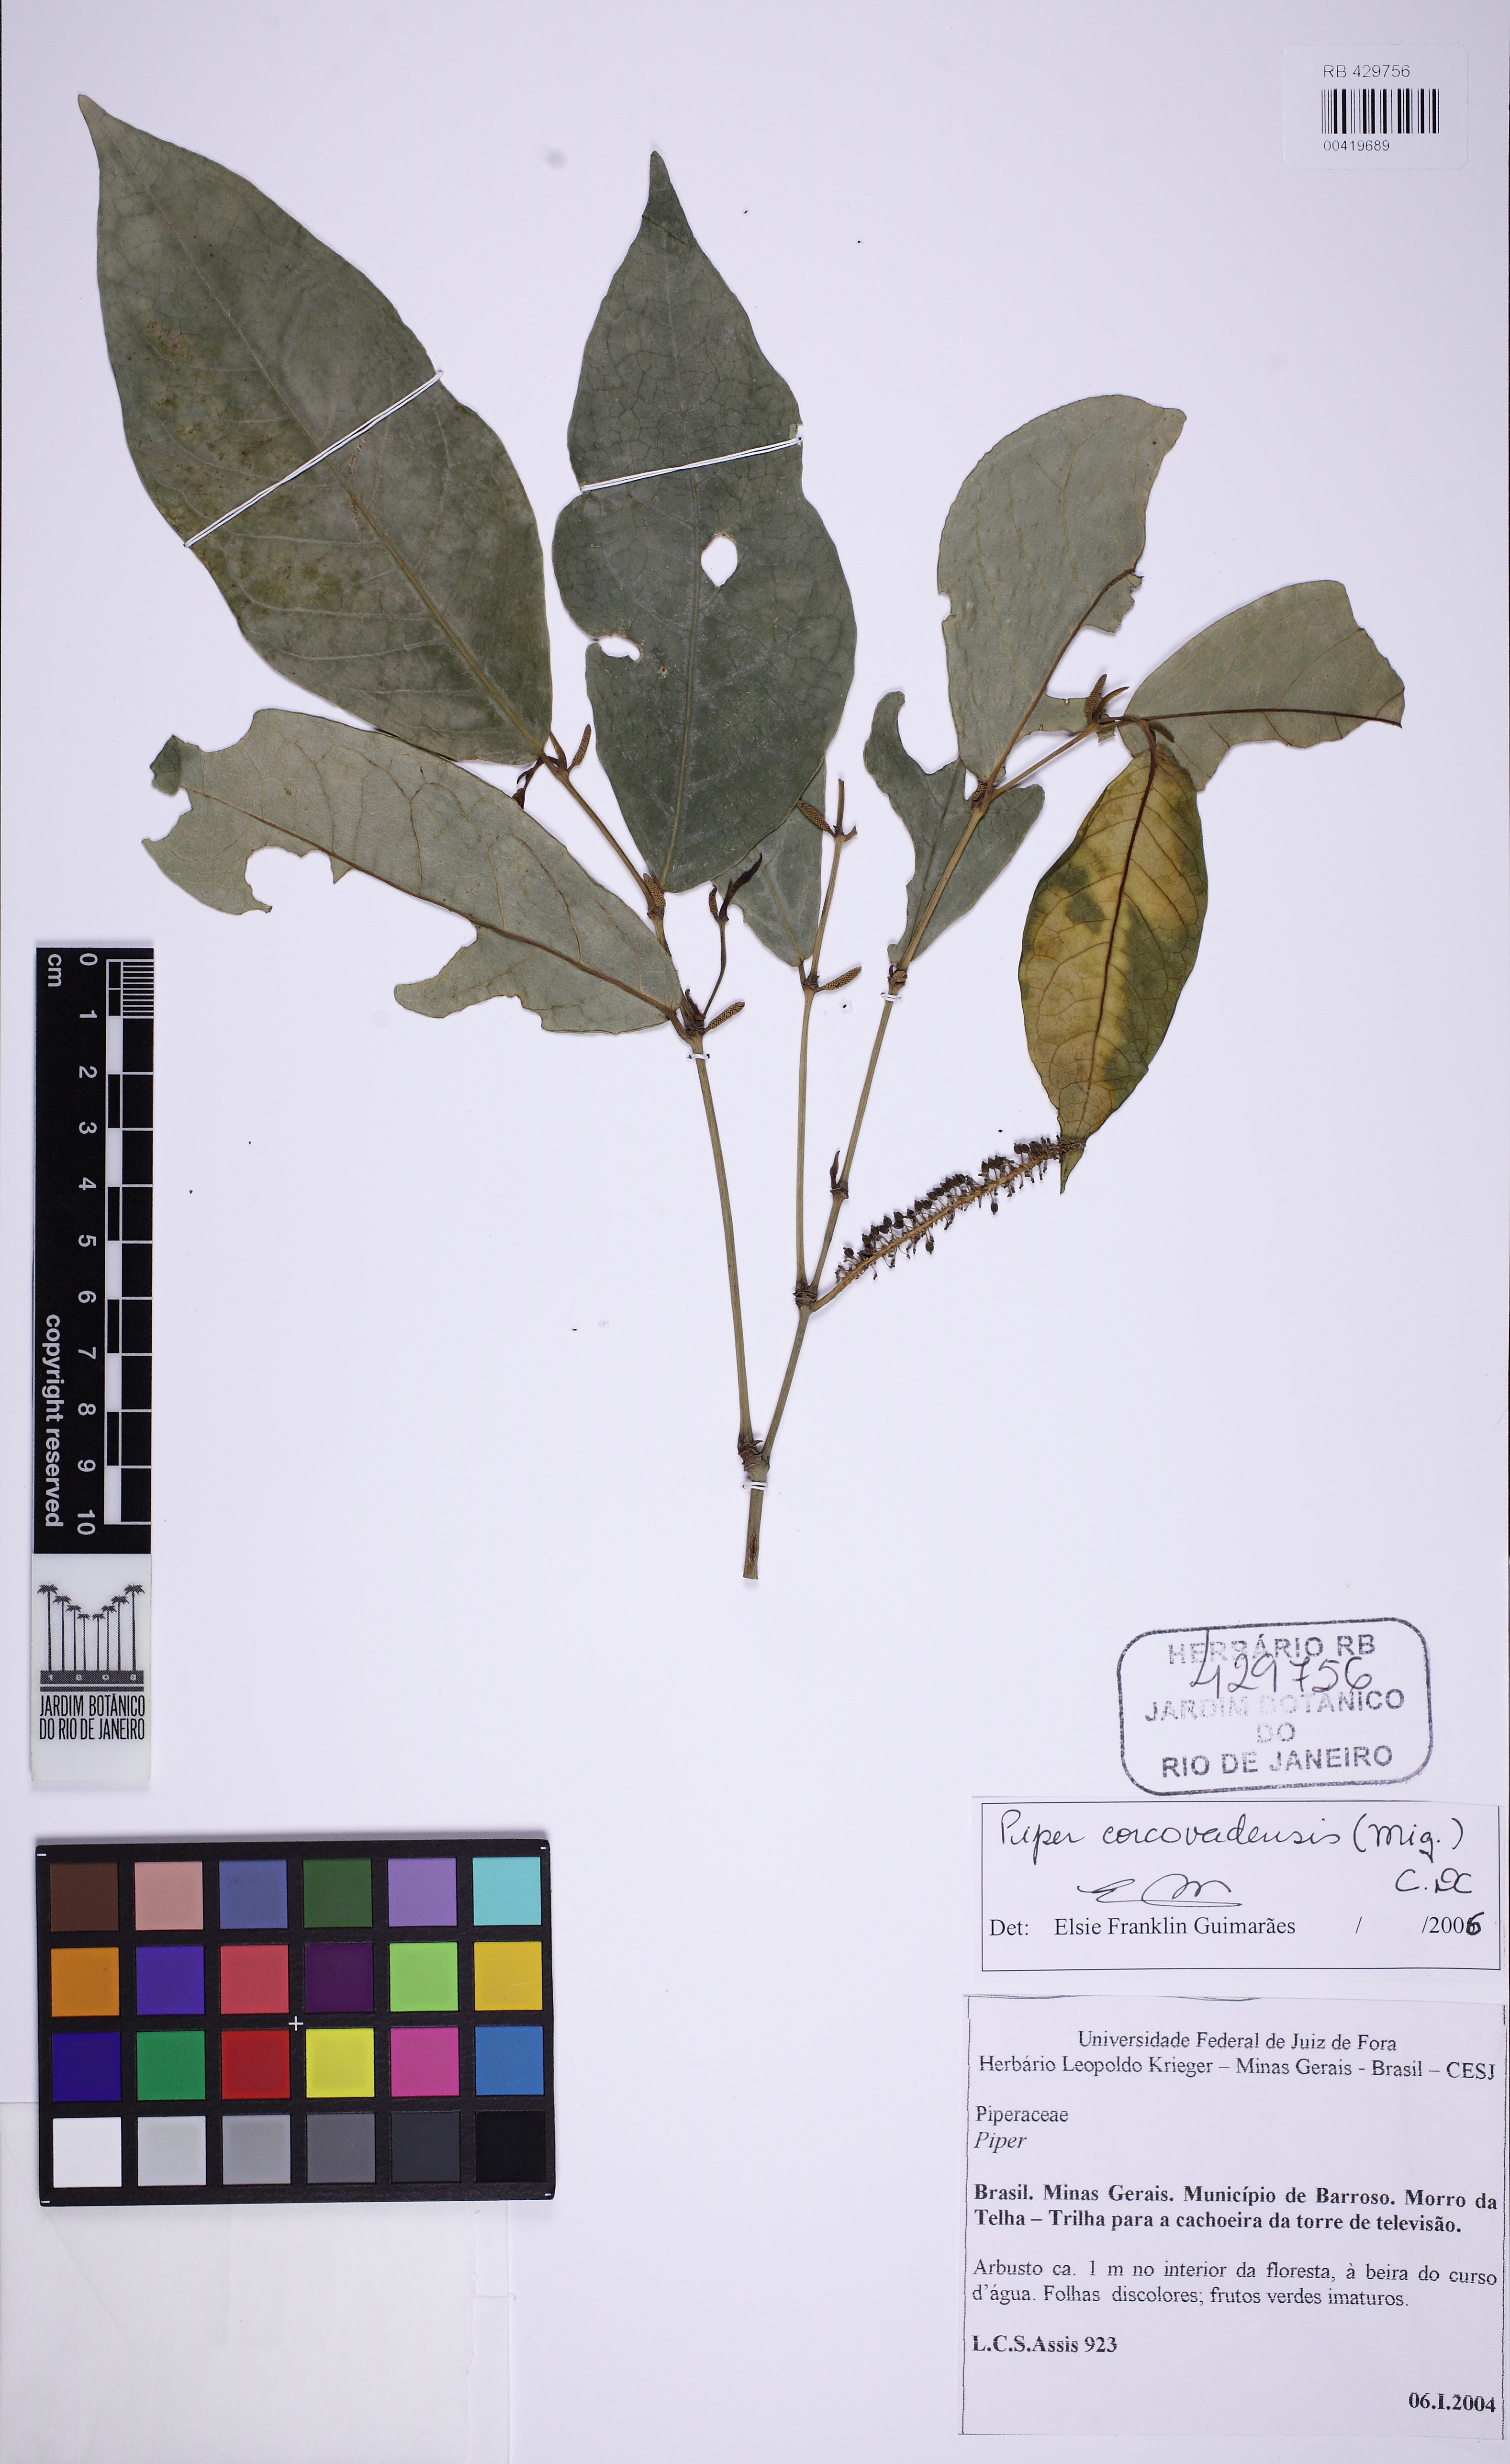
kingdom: Plantae
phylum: Tracheophyta
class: Magnoliopsida
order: Piperales
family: Piperaceae
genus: Piper
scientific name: Piper corcovadense
